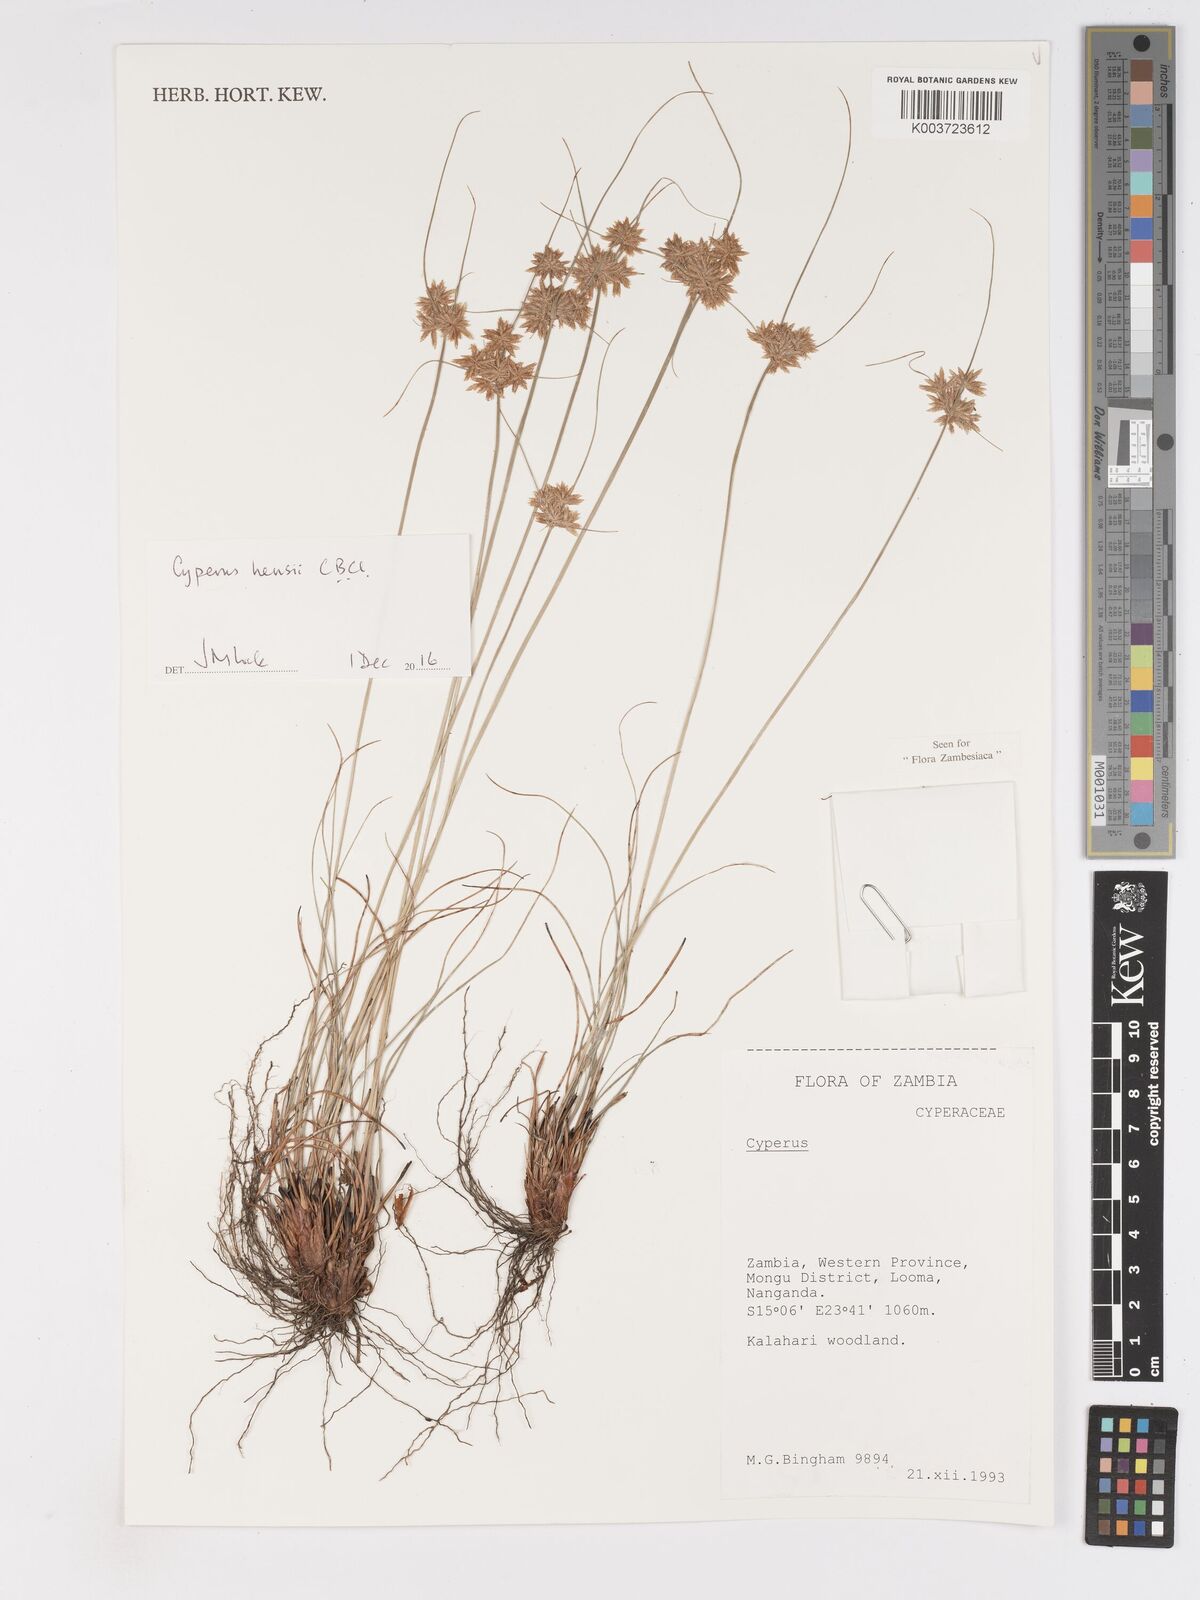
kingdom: Plantae
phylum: Tracheophyta
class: Liliopsida
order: Poales
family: Cyperaceae
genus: Cyperus
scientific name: Cyperus hensii
